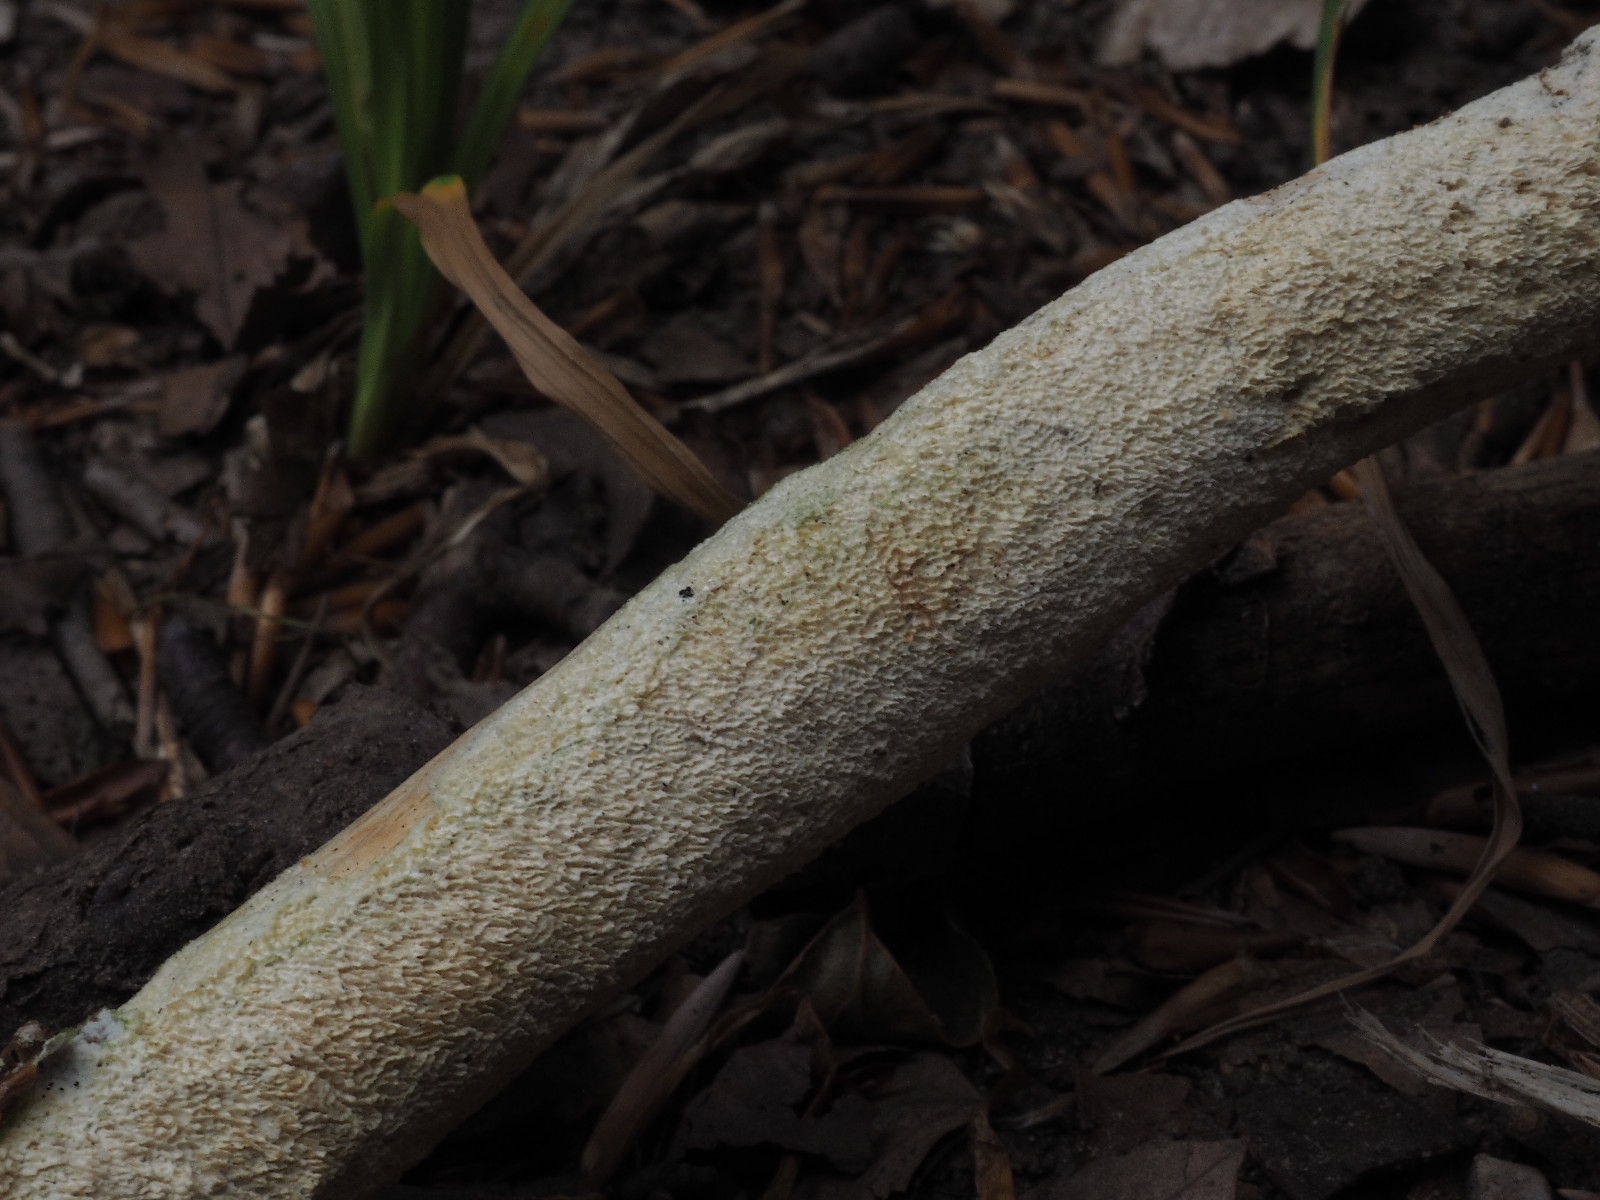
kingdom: Fungi
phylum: Basidiomycota
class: Agaricomycetes
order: Hymenochaetales
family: Schizoporaceae
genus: Schizopora
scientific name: Schizopora paradoxa
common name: hvid tandsvamp
